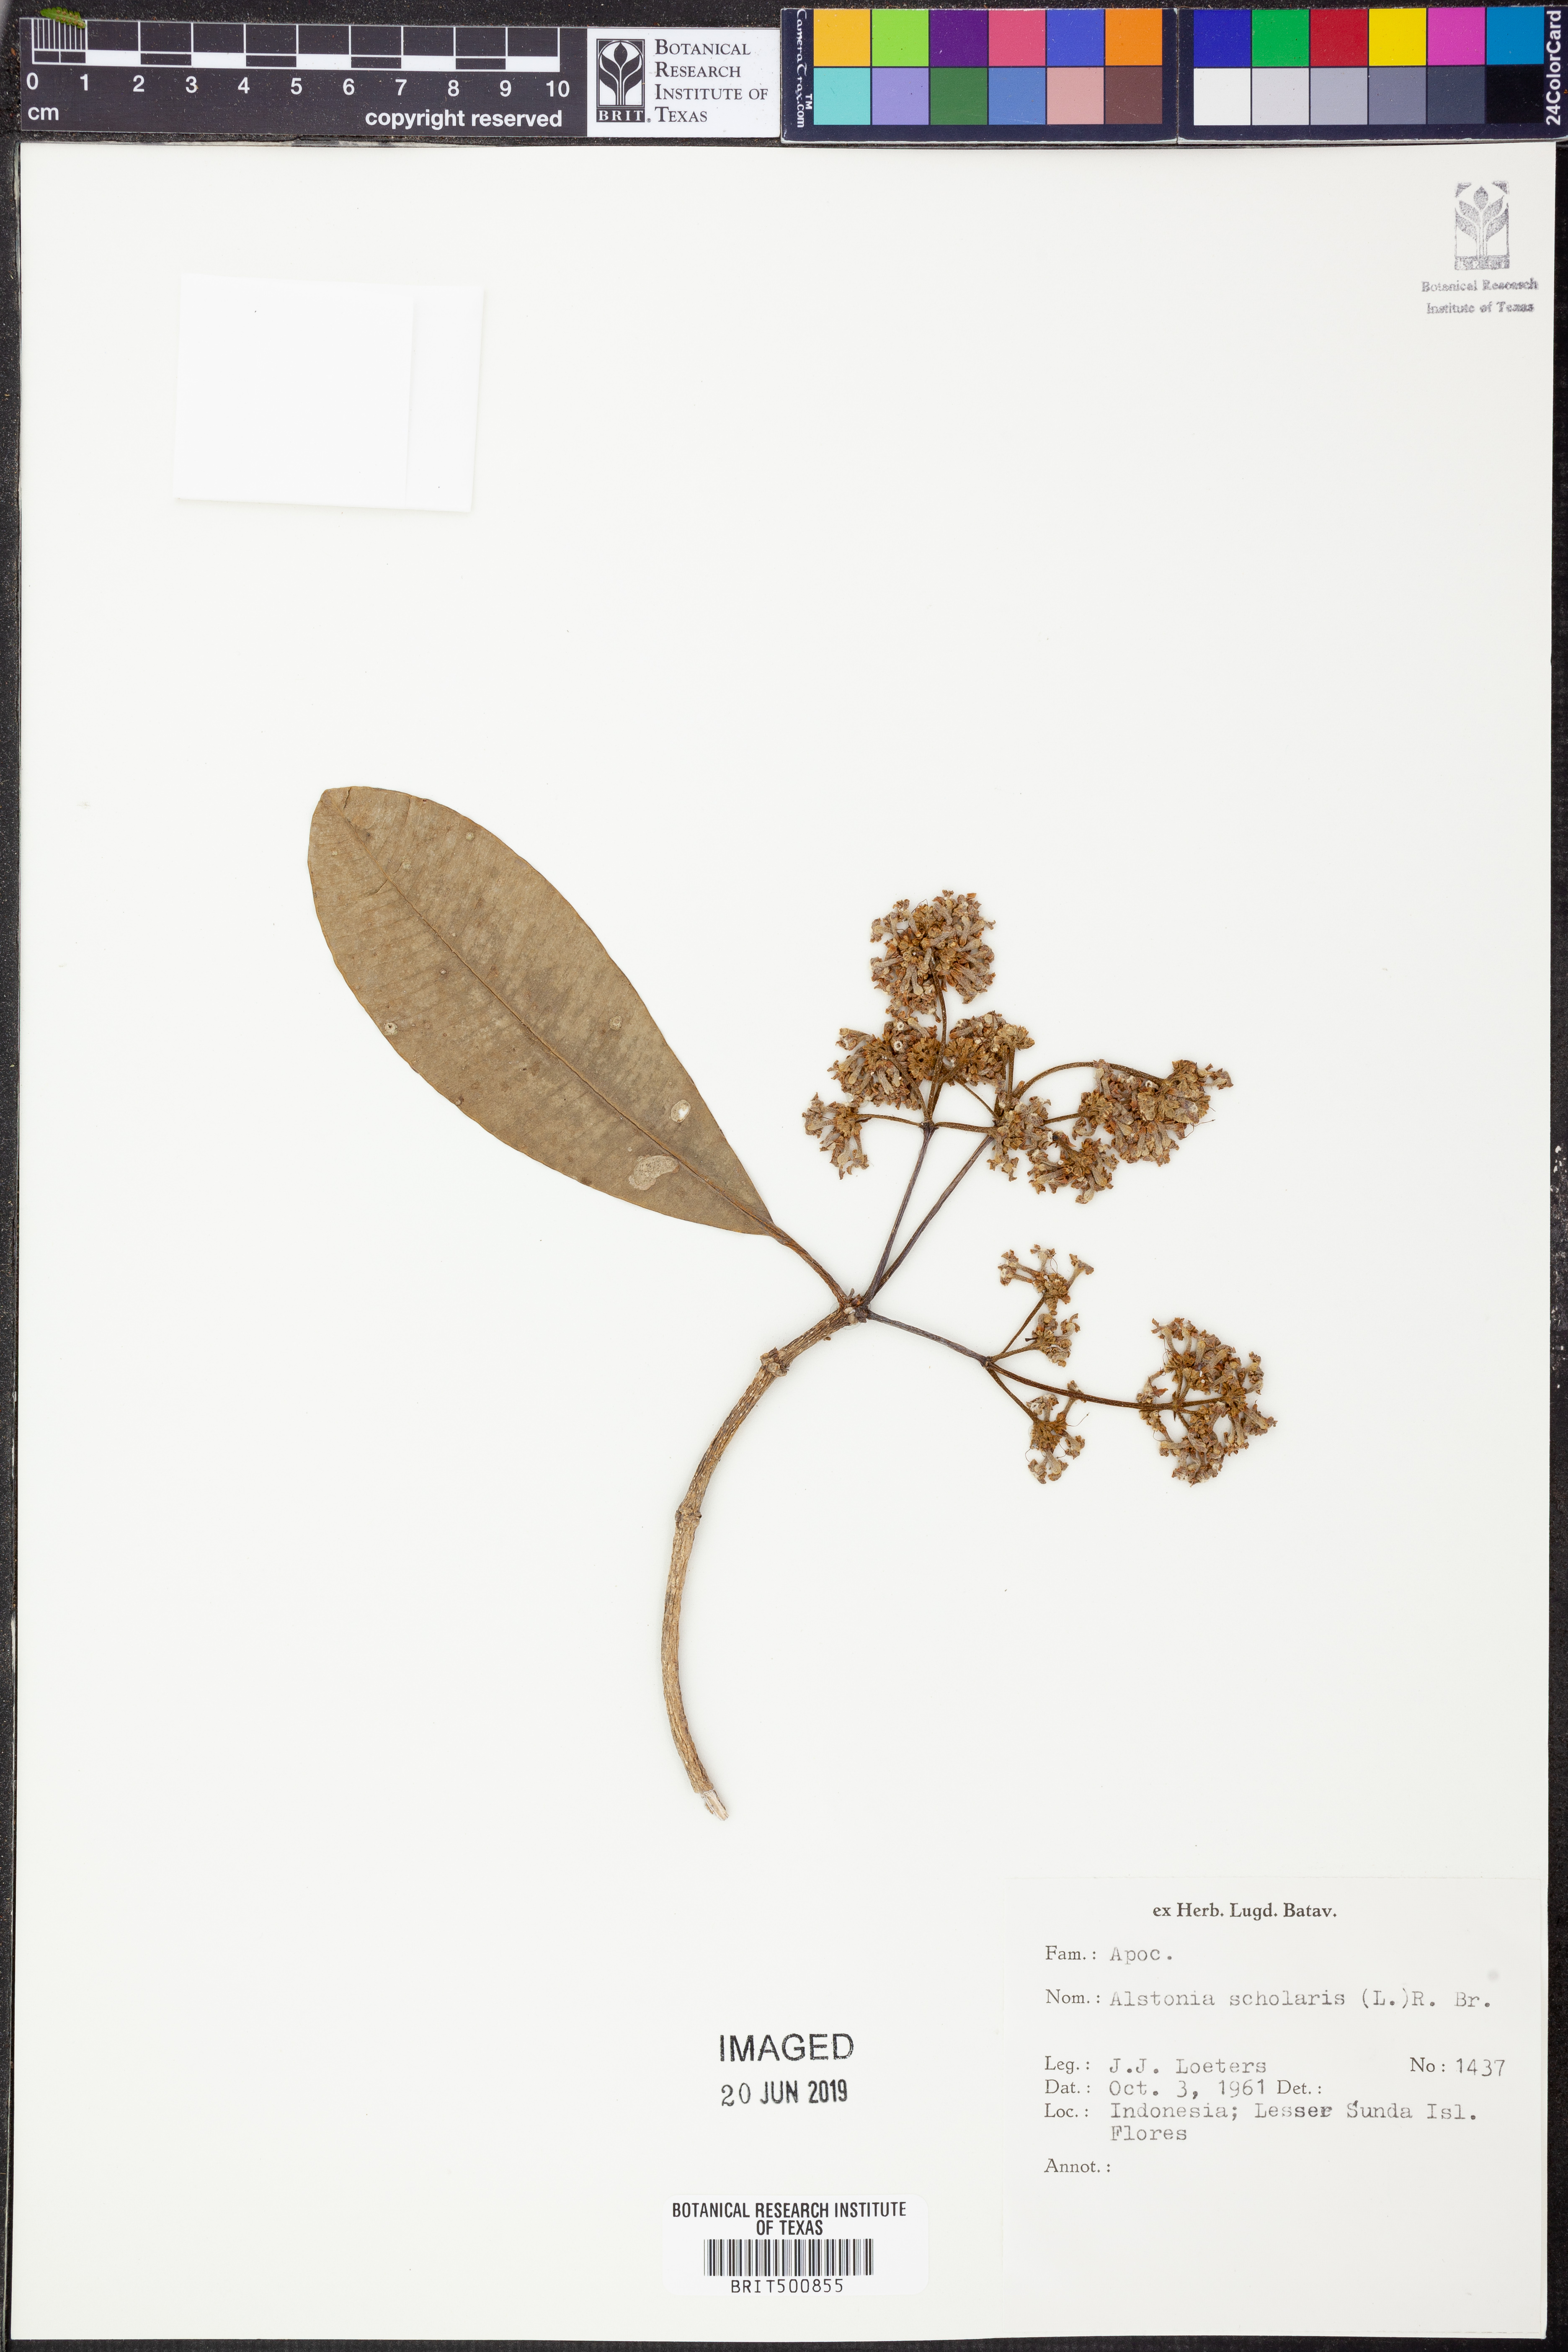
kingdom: Plantae
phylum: Tracheophyta
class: Magnoliopsida
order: Gentianales
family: Apocynaceae
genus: Alstonia
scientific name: Alstonia scholaris
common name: White cheesewood
